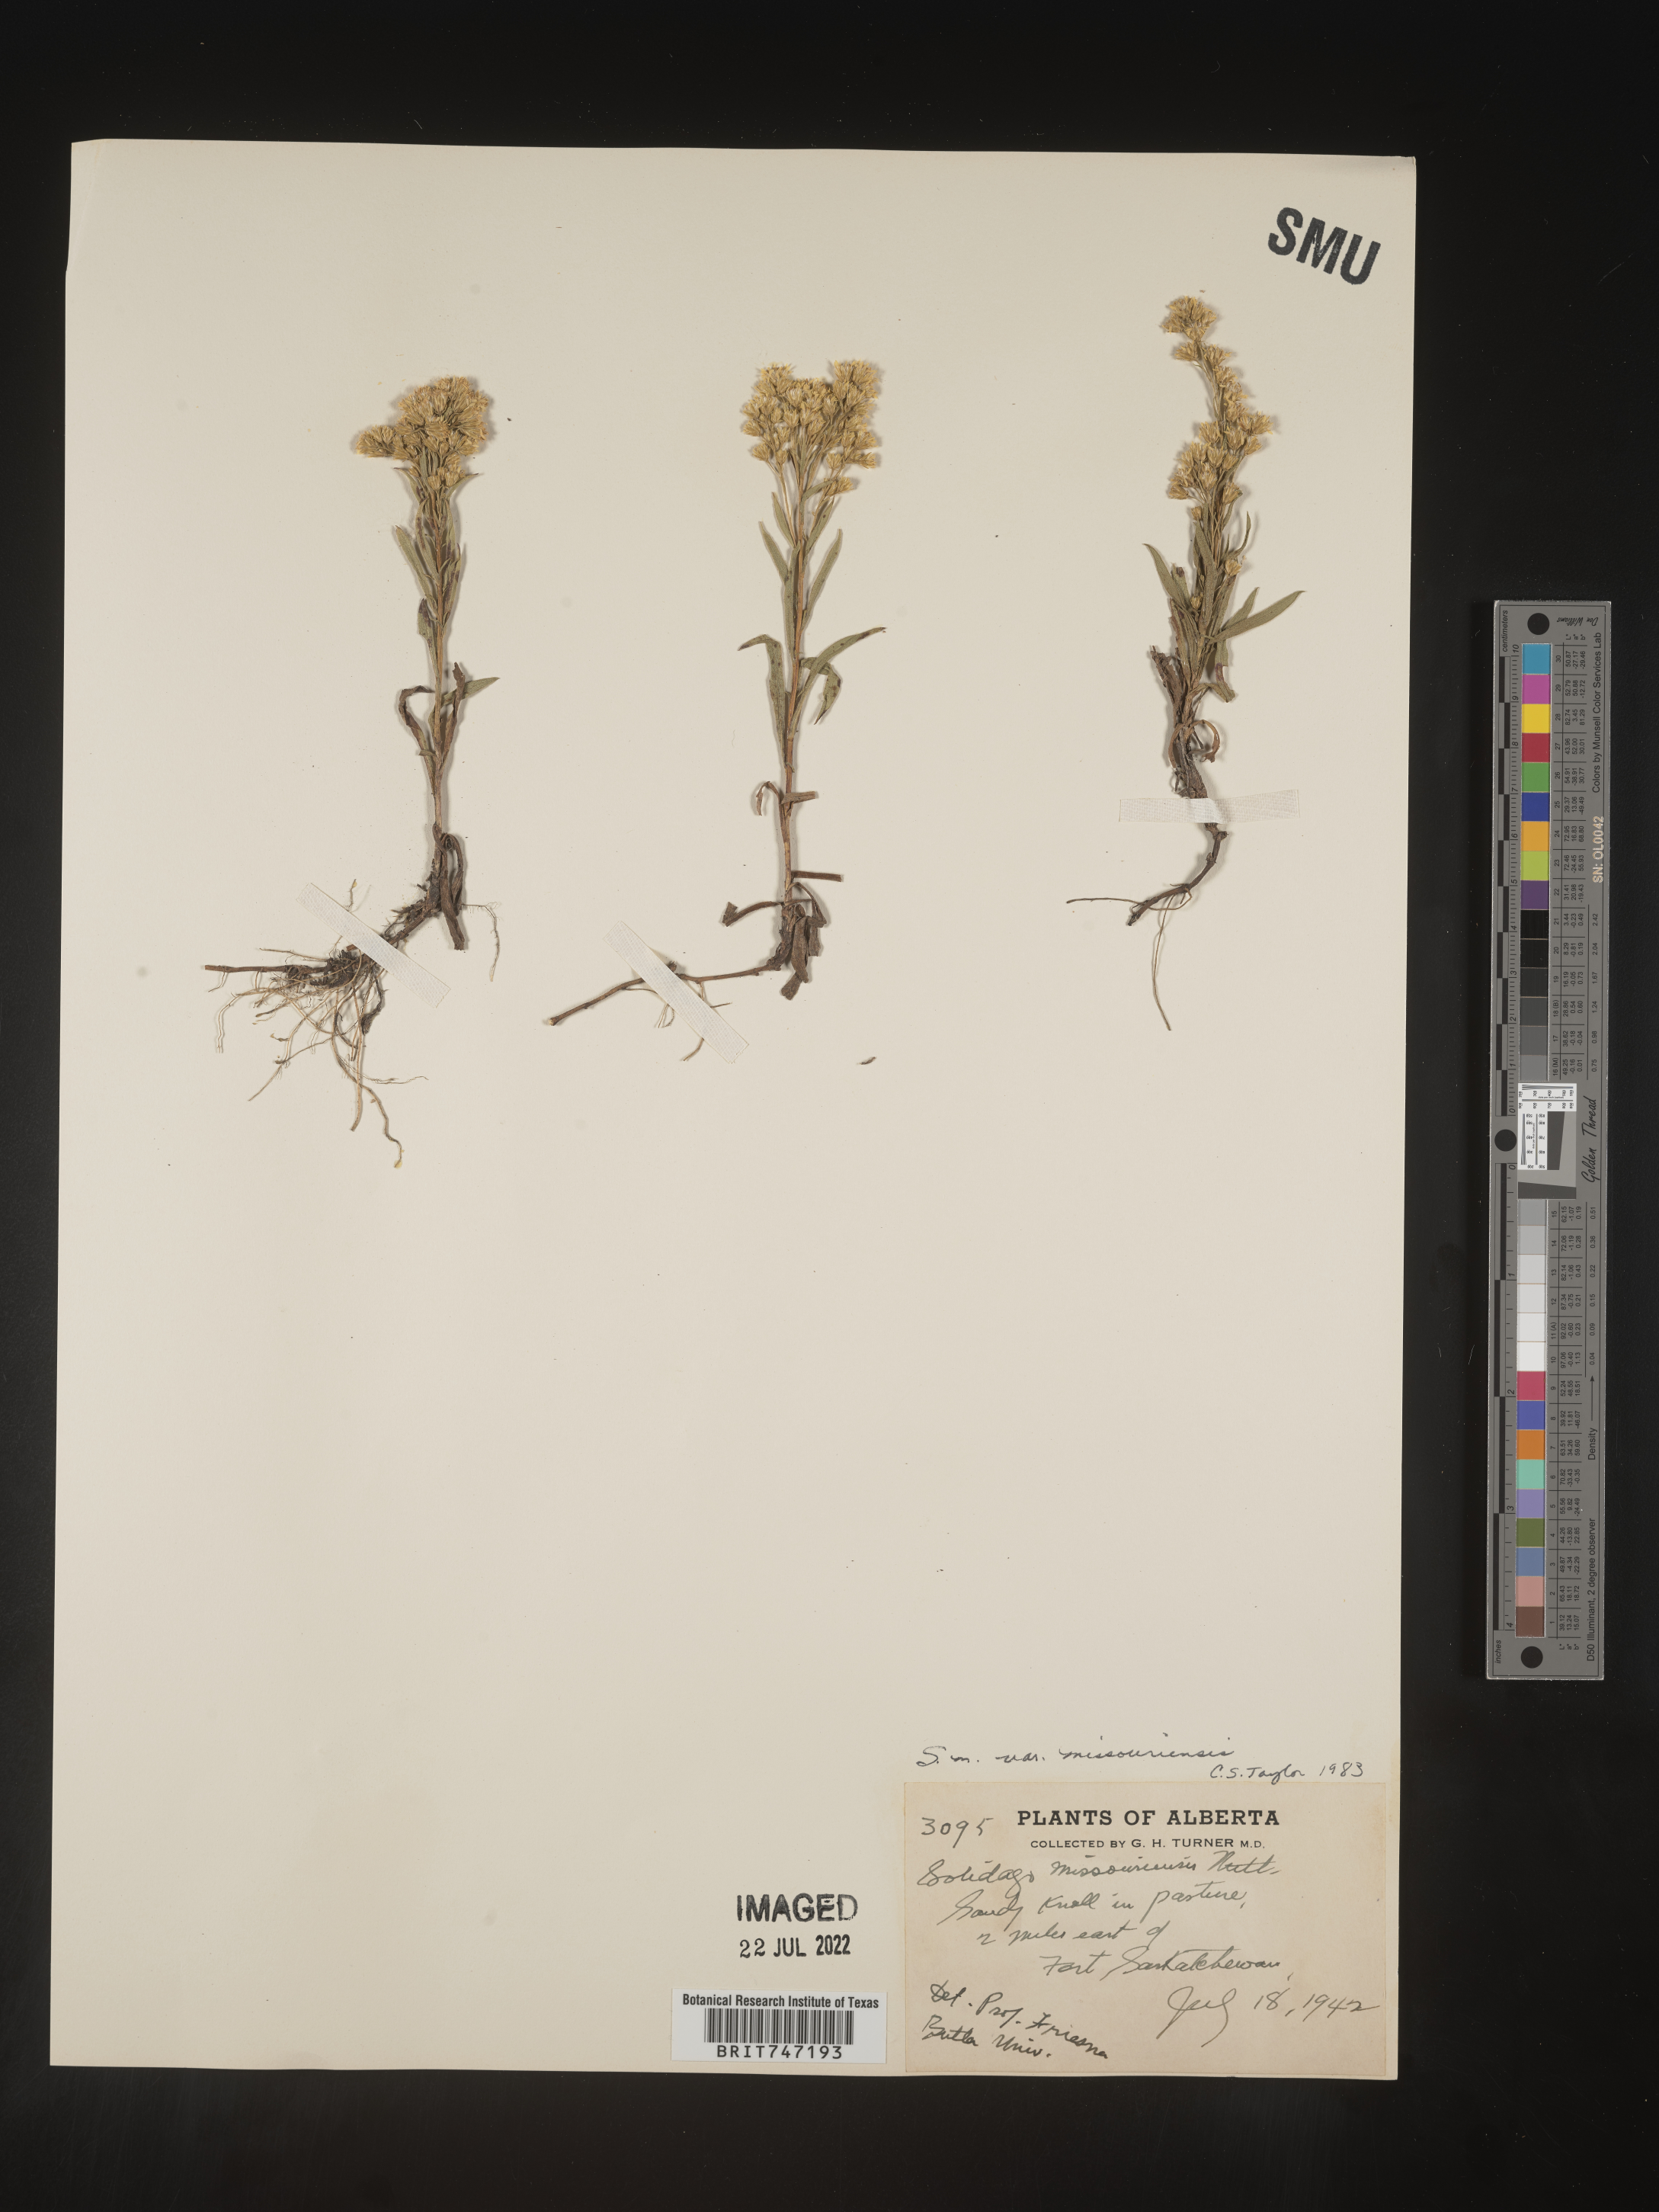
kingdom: Plantae
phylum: Tracheophyta
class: Magnoliopsida
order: Asterales
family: Asteraceae
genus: Solidago
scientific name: Solidago missouriensis
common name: Prairie goldenrod
